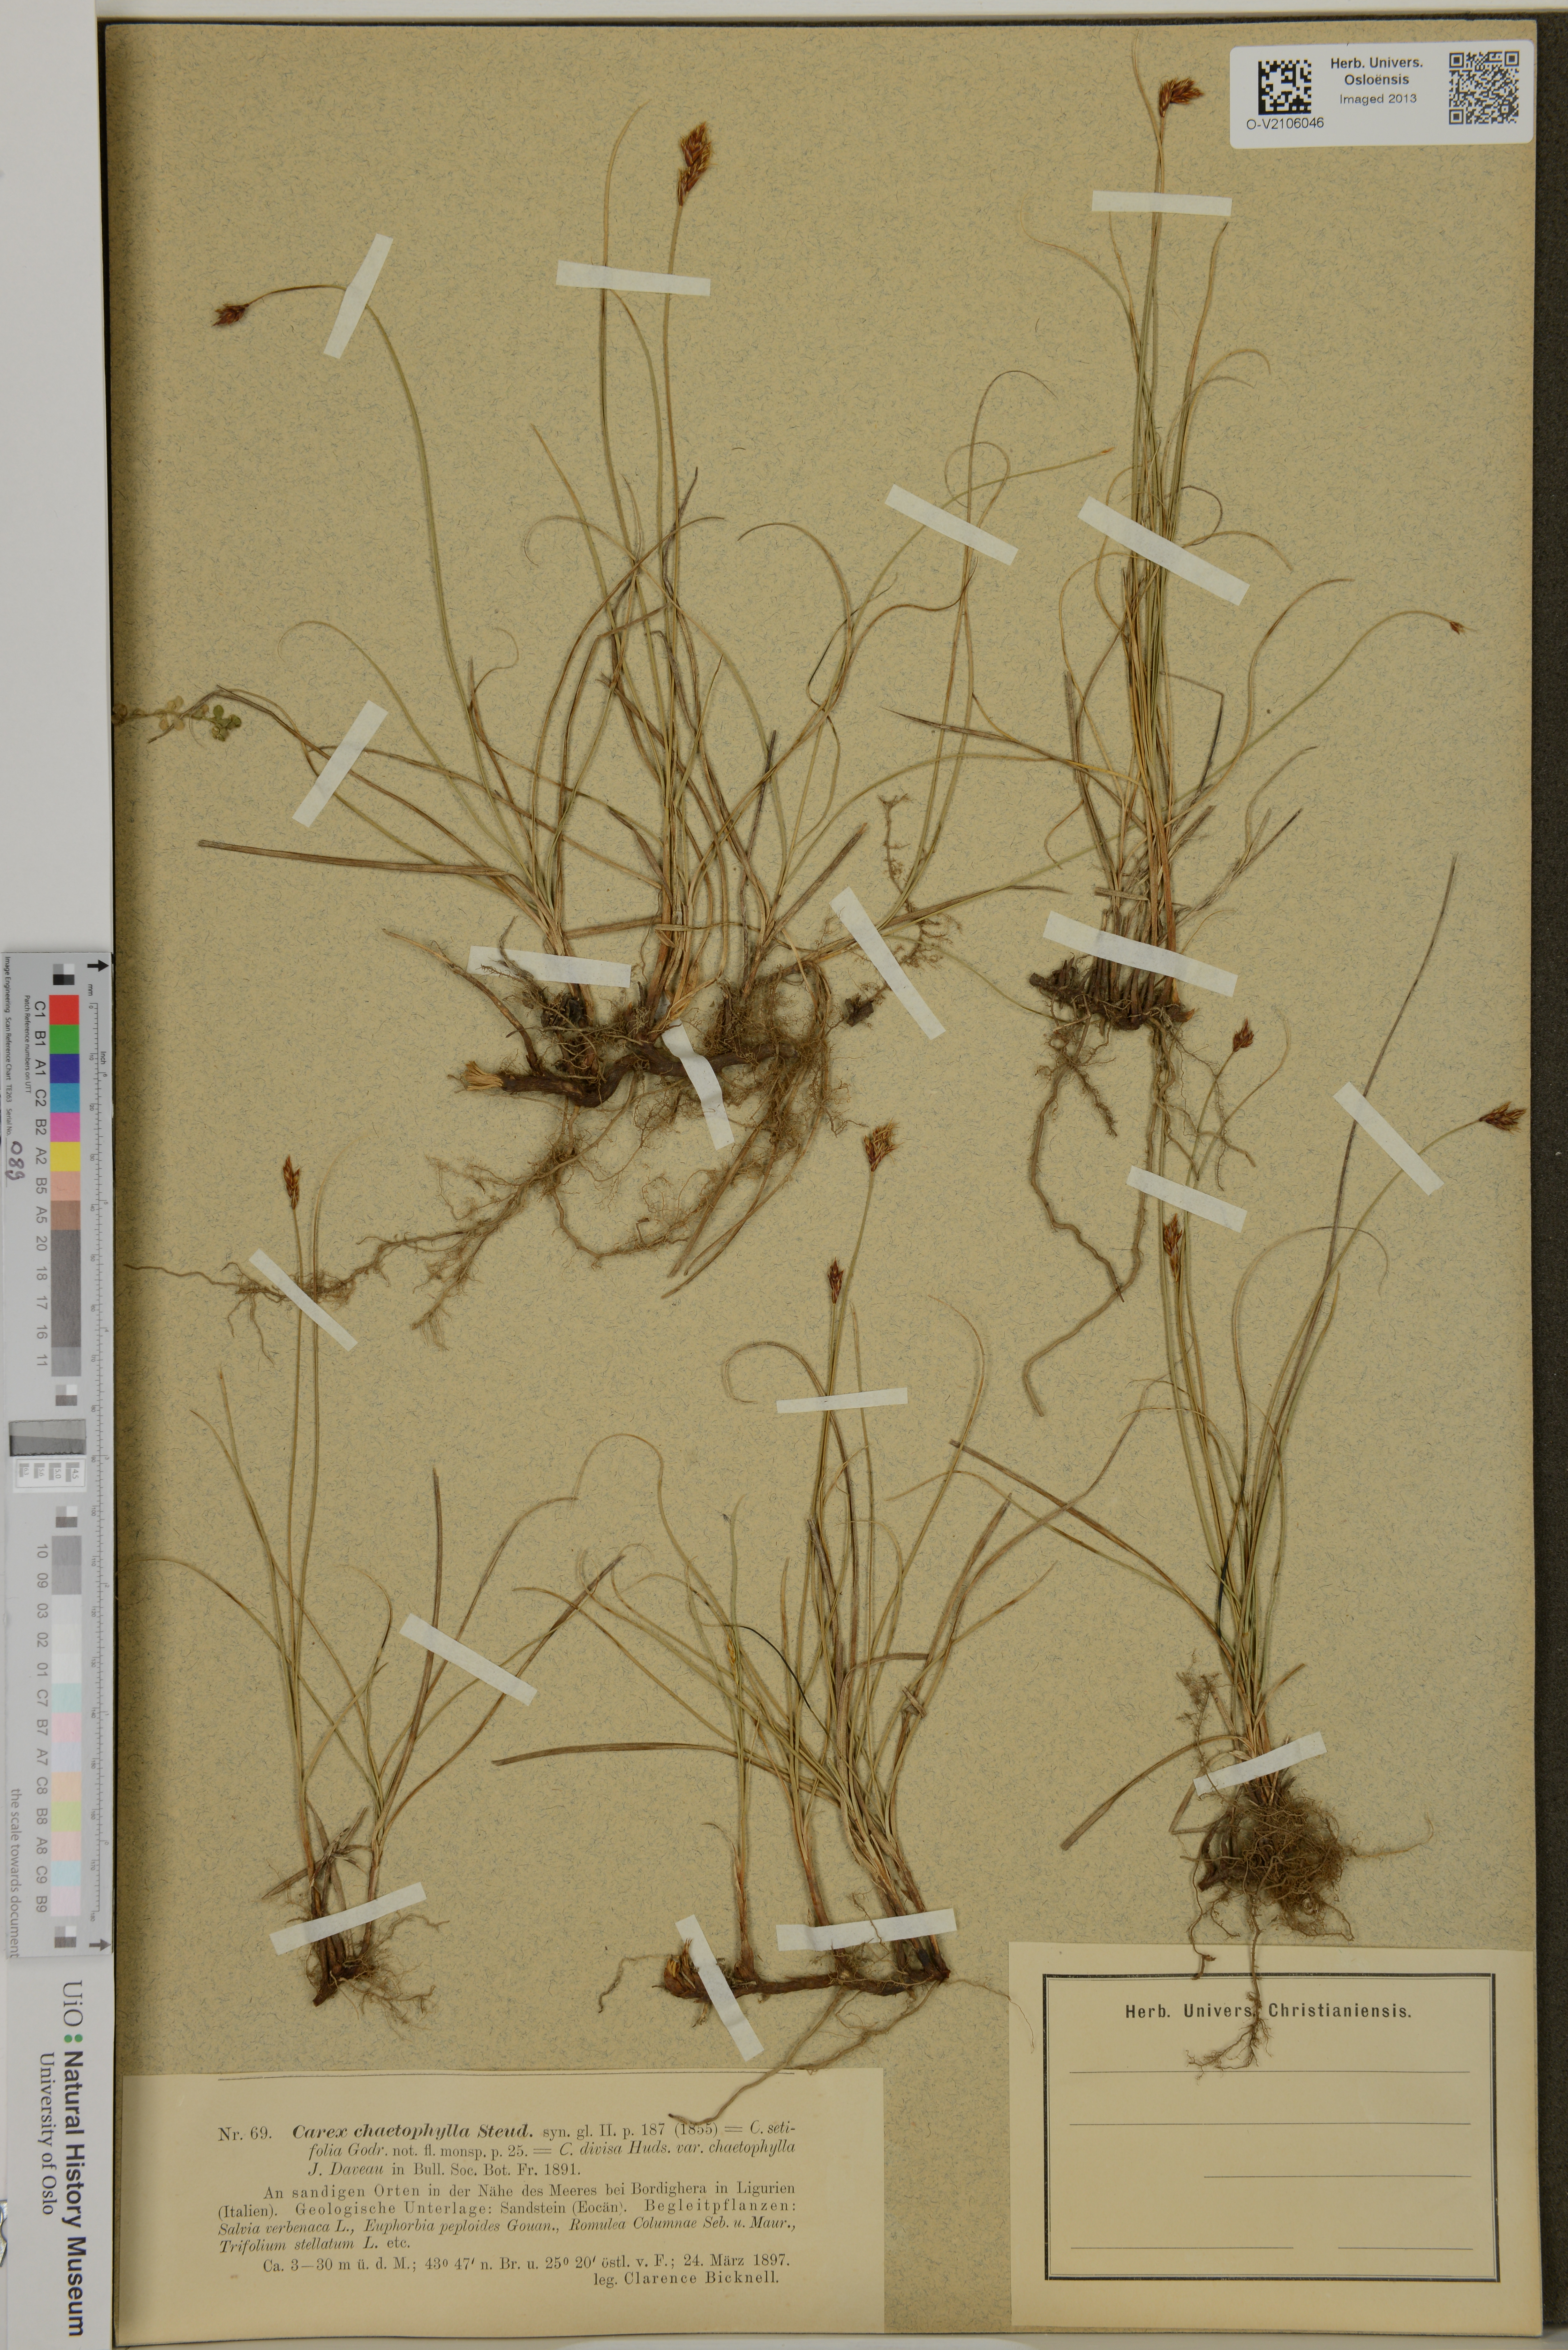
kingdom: Plantae
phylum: Tracheophyta
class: Liliopsida
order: Poales
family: Cyperaceae
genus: Carex
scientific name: Carex divisa
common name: Divided sedge
